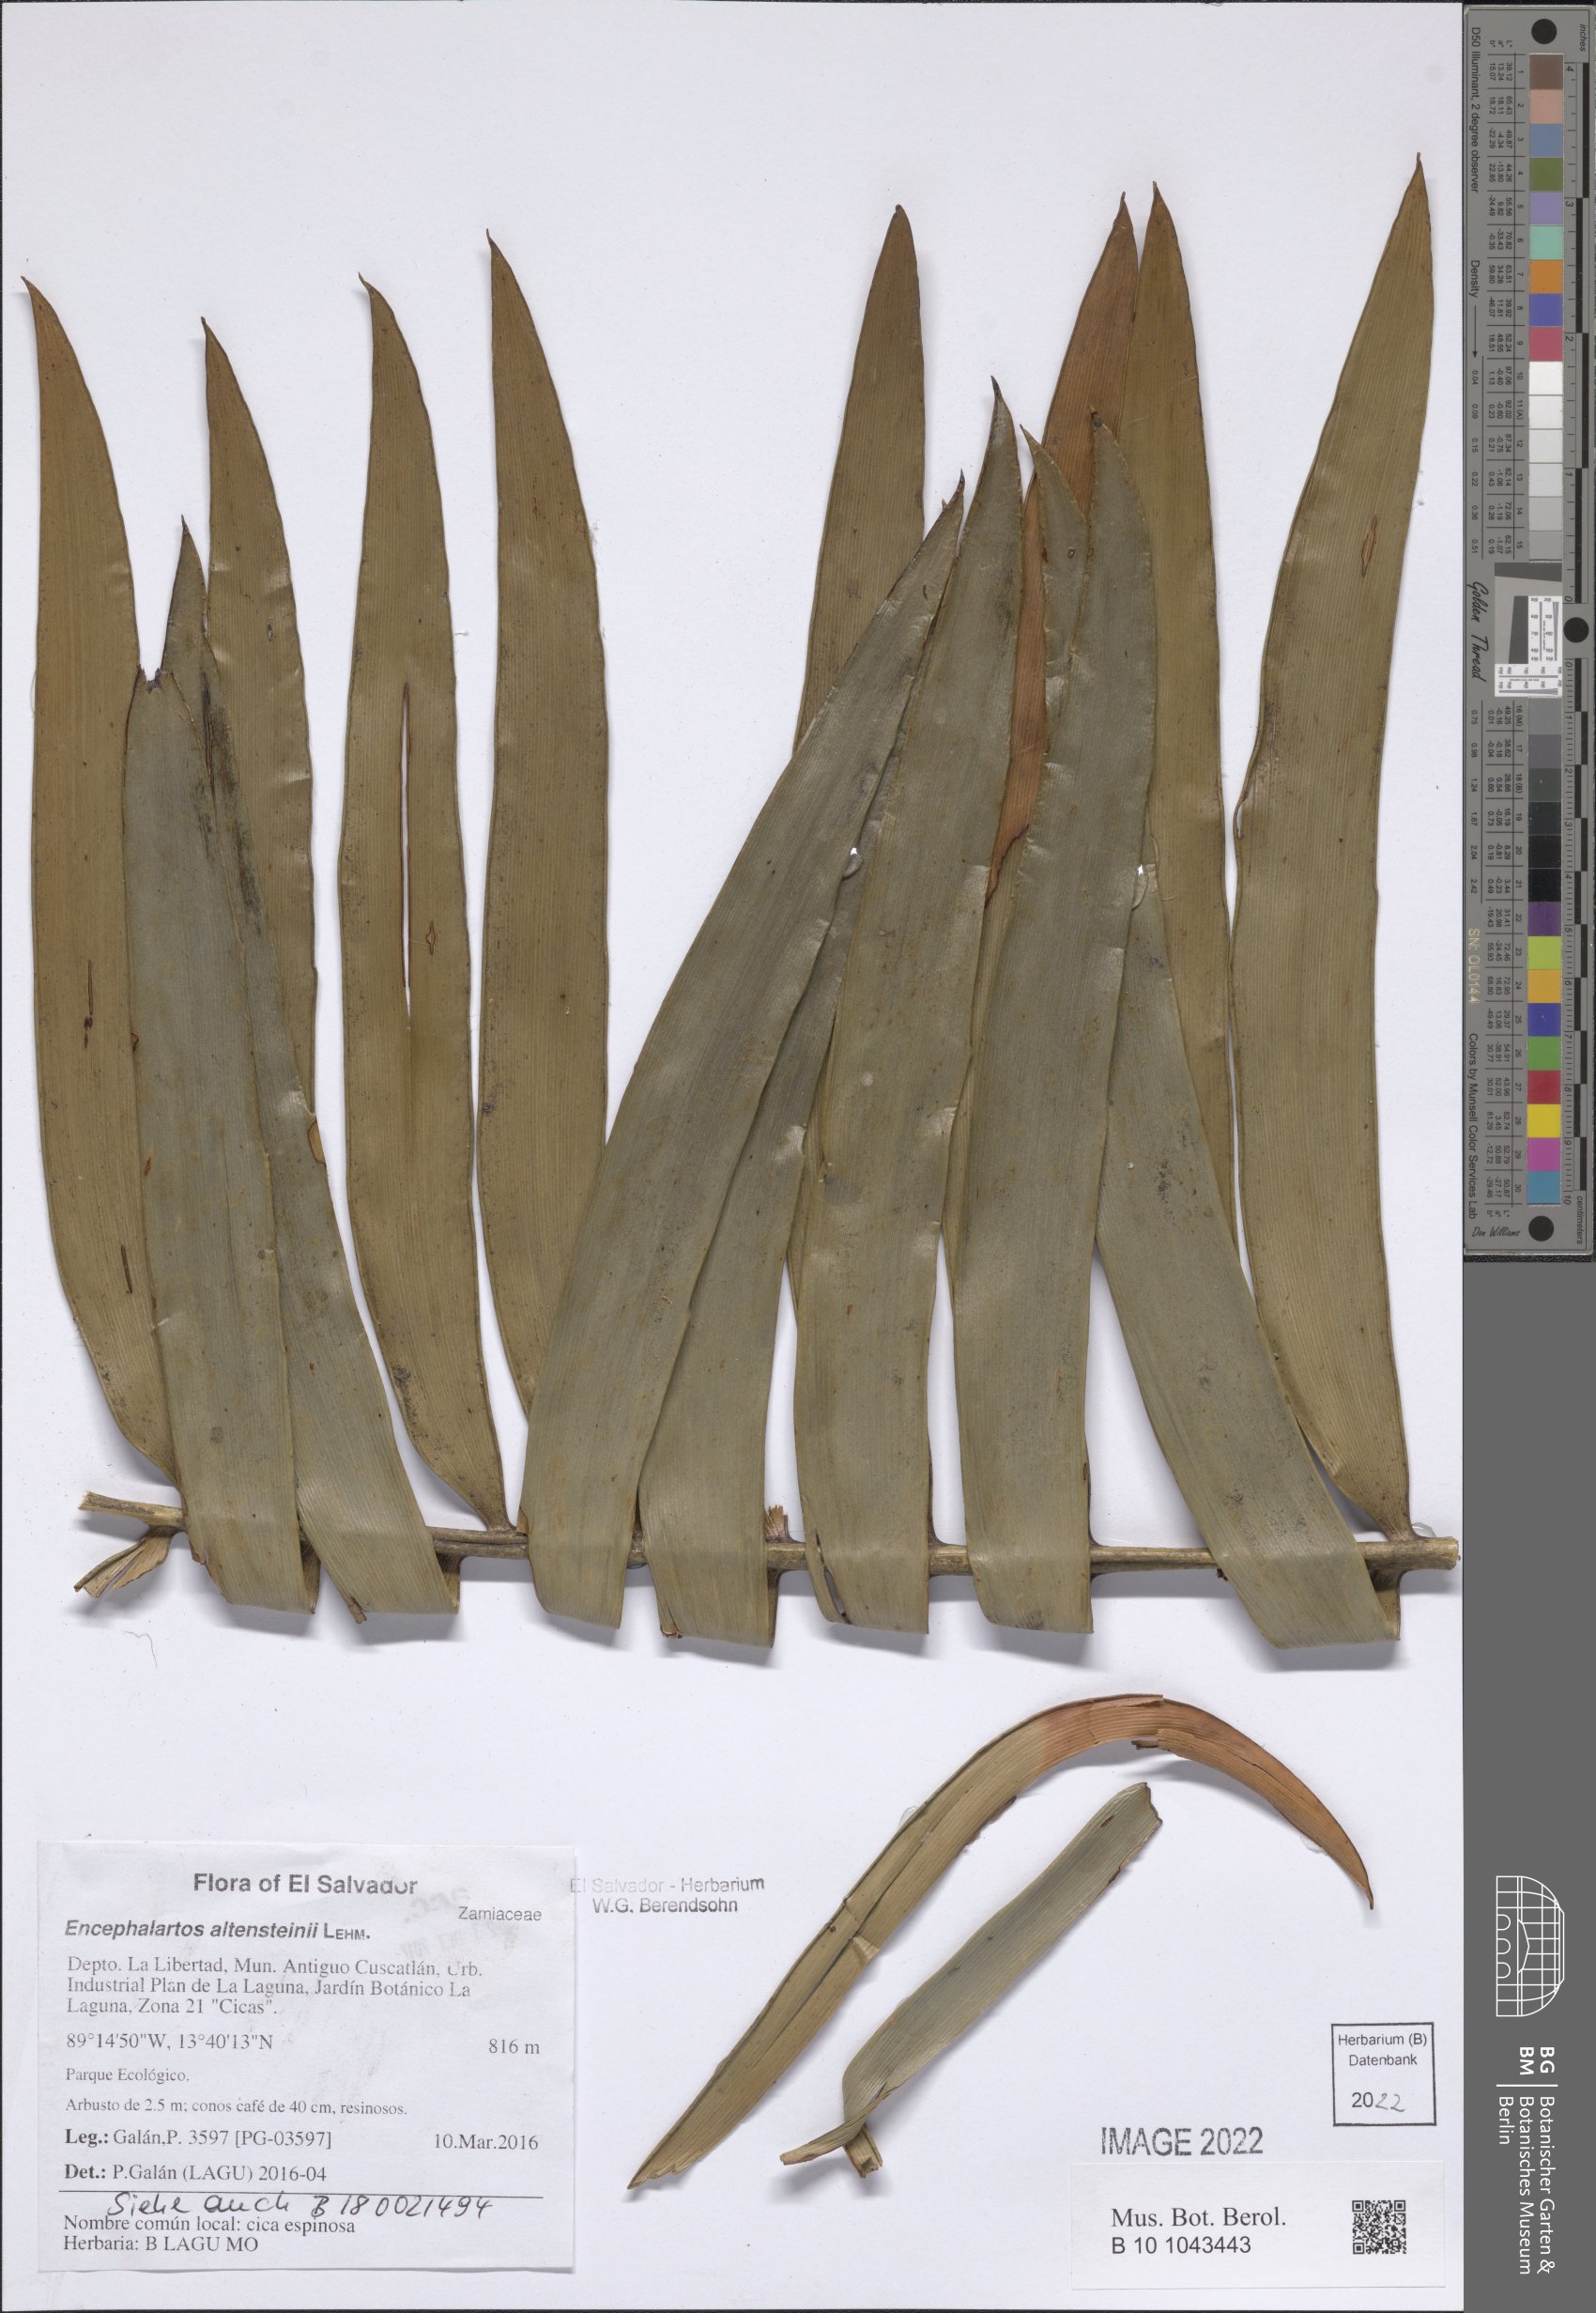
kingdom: Plantae
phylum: Tracheophyta
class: Cycadopsida
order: Cycadales
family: Zamiaceae
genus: Encephalartos
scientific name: Encephalartos altensteinii
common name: Eastern cape cycad
